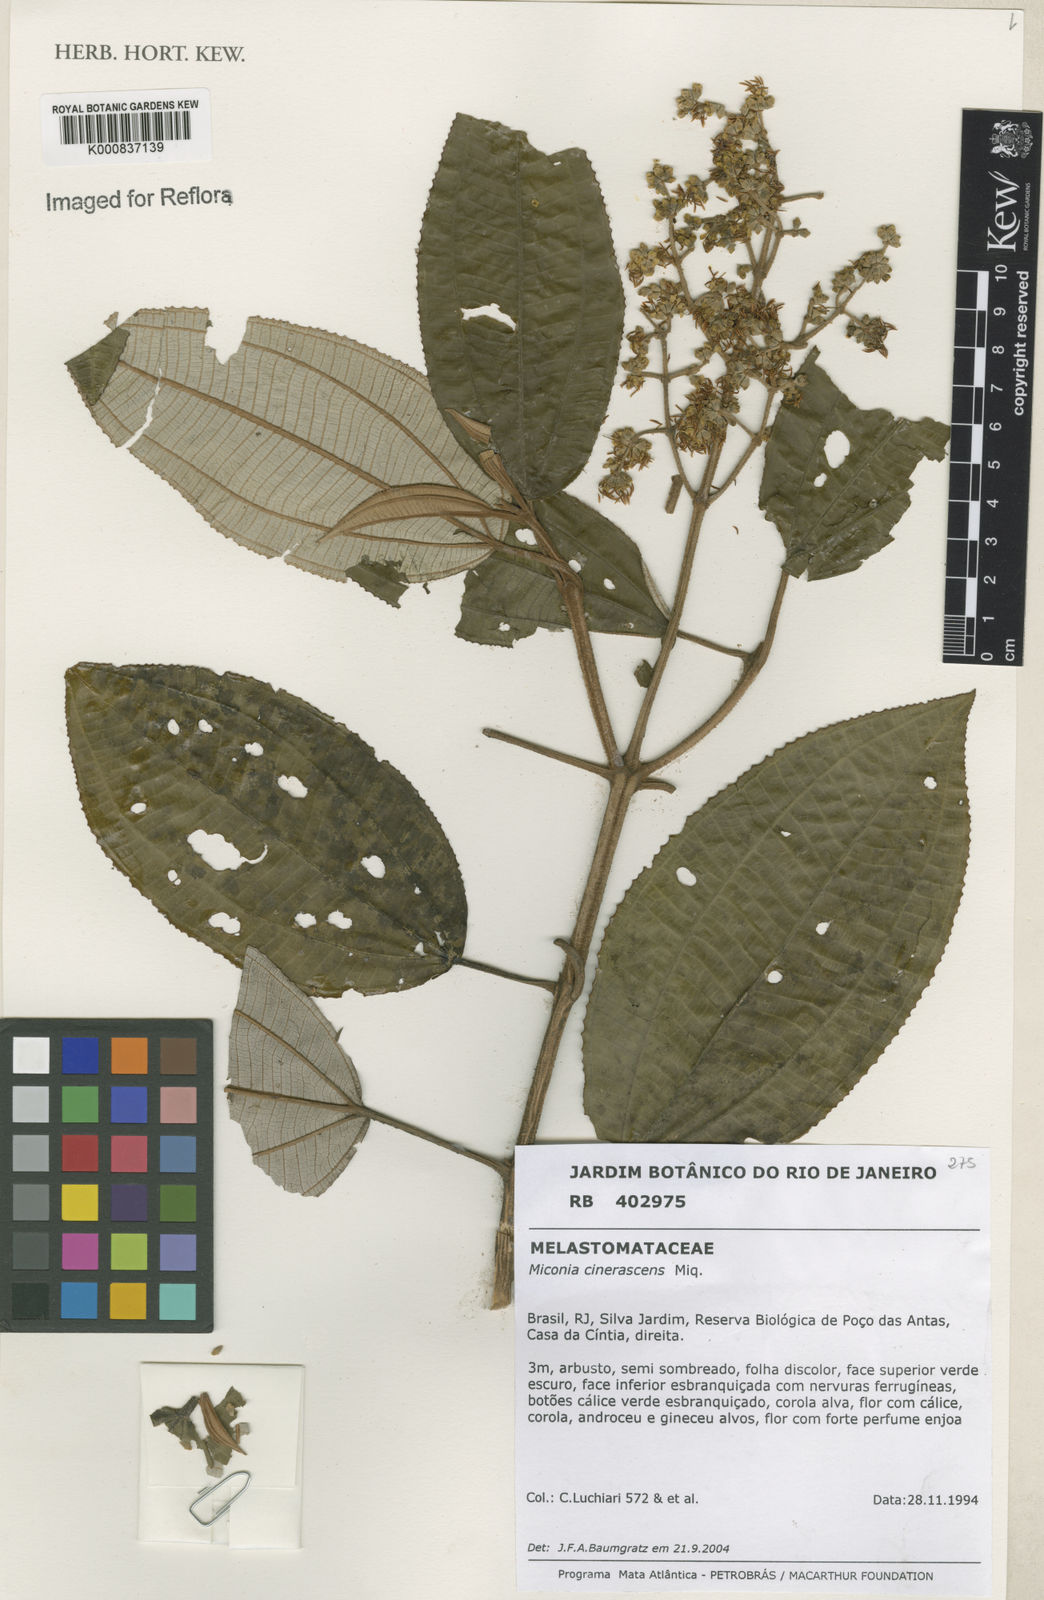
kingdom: Plantae
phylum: Tracheophyta
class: Magnoliopsida
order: Myrtales
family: Melastomataceae
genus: Miconia
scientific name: Miconia cinerascens
